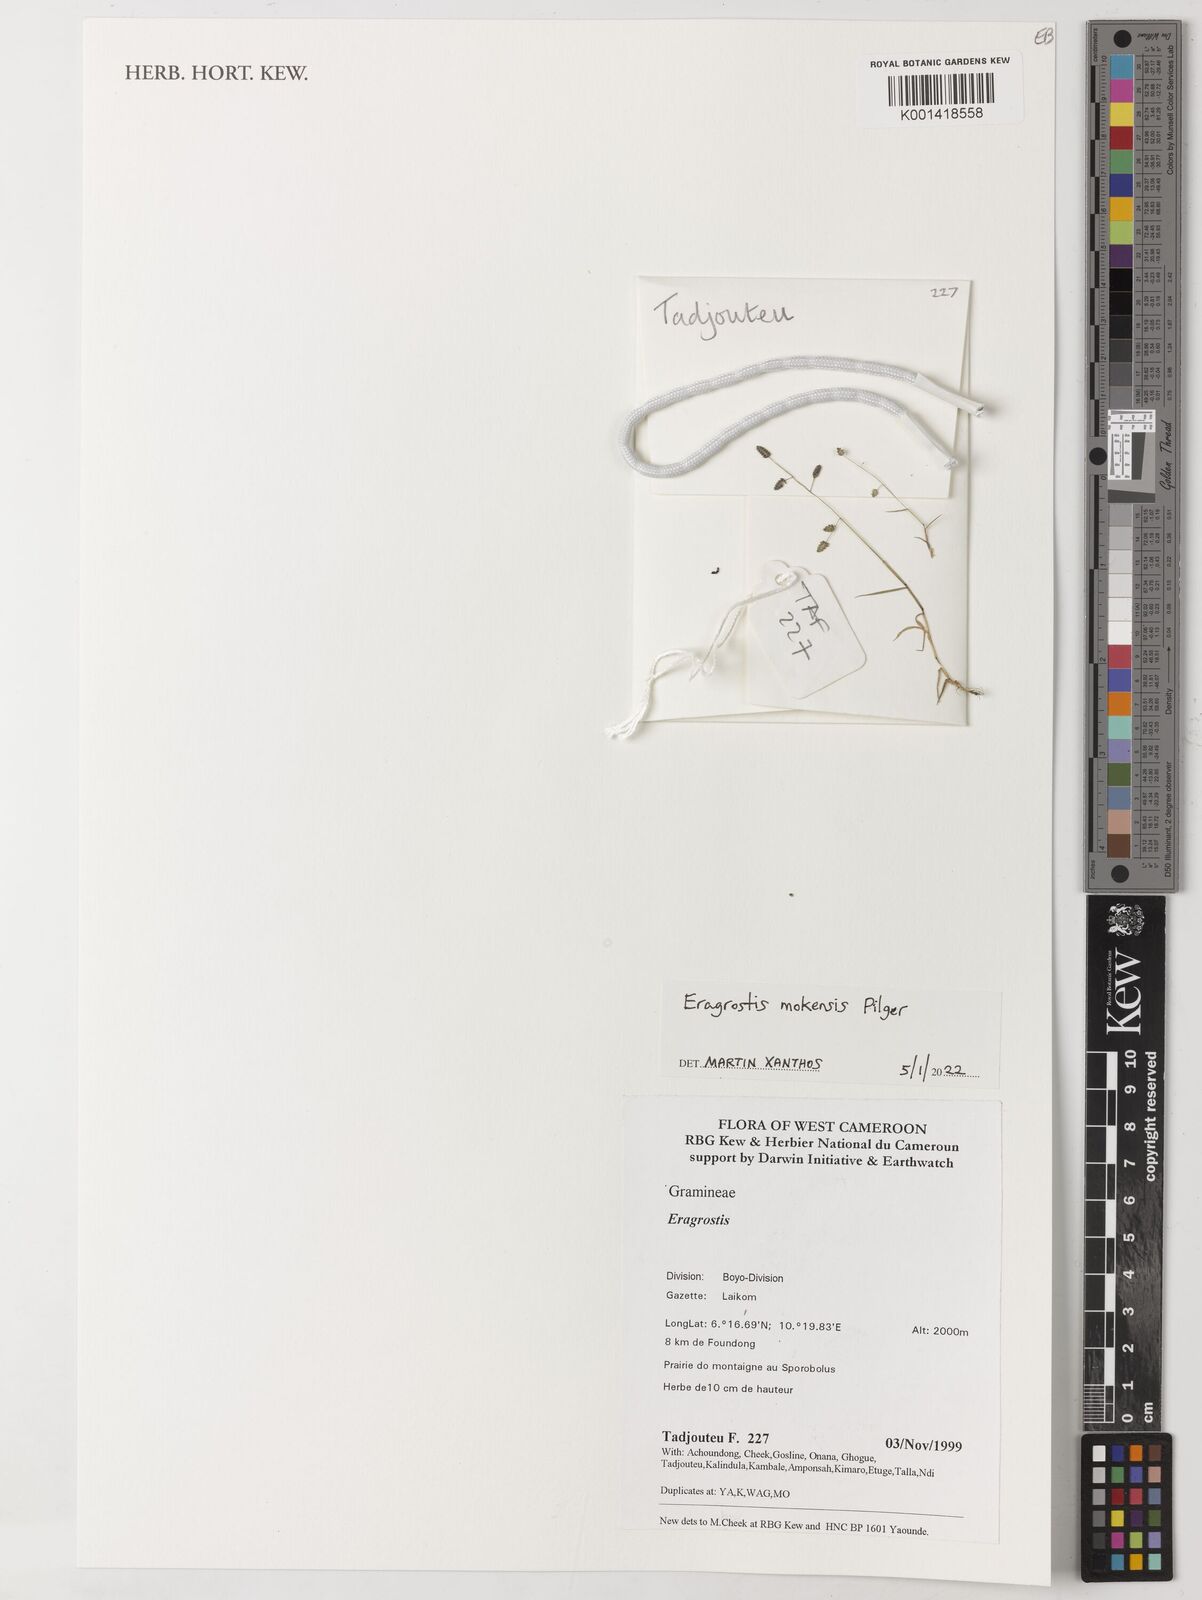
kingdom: Plantae
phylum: Tracheophyta
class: Liliopsida
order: Poales
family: Poaceae
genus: Eragrostis
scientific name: Eragrostis mokensis
